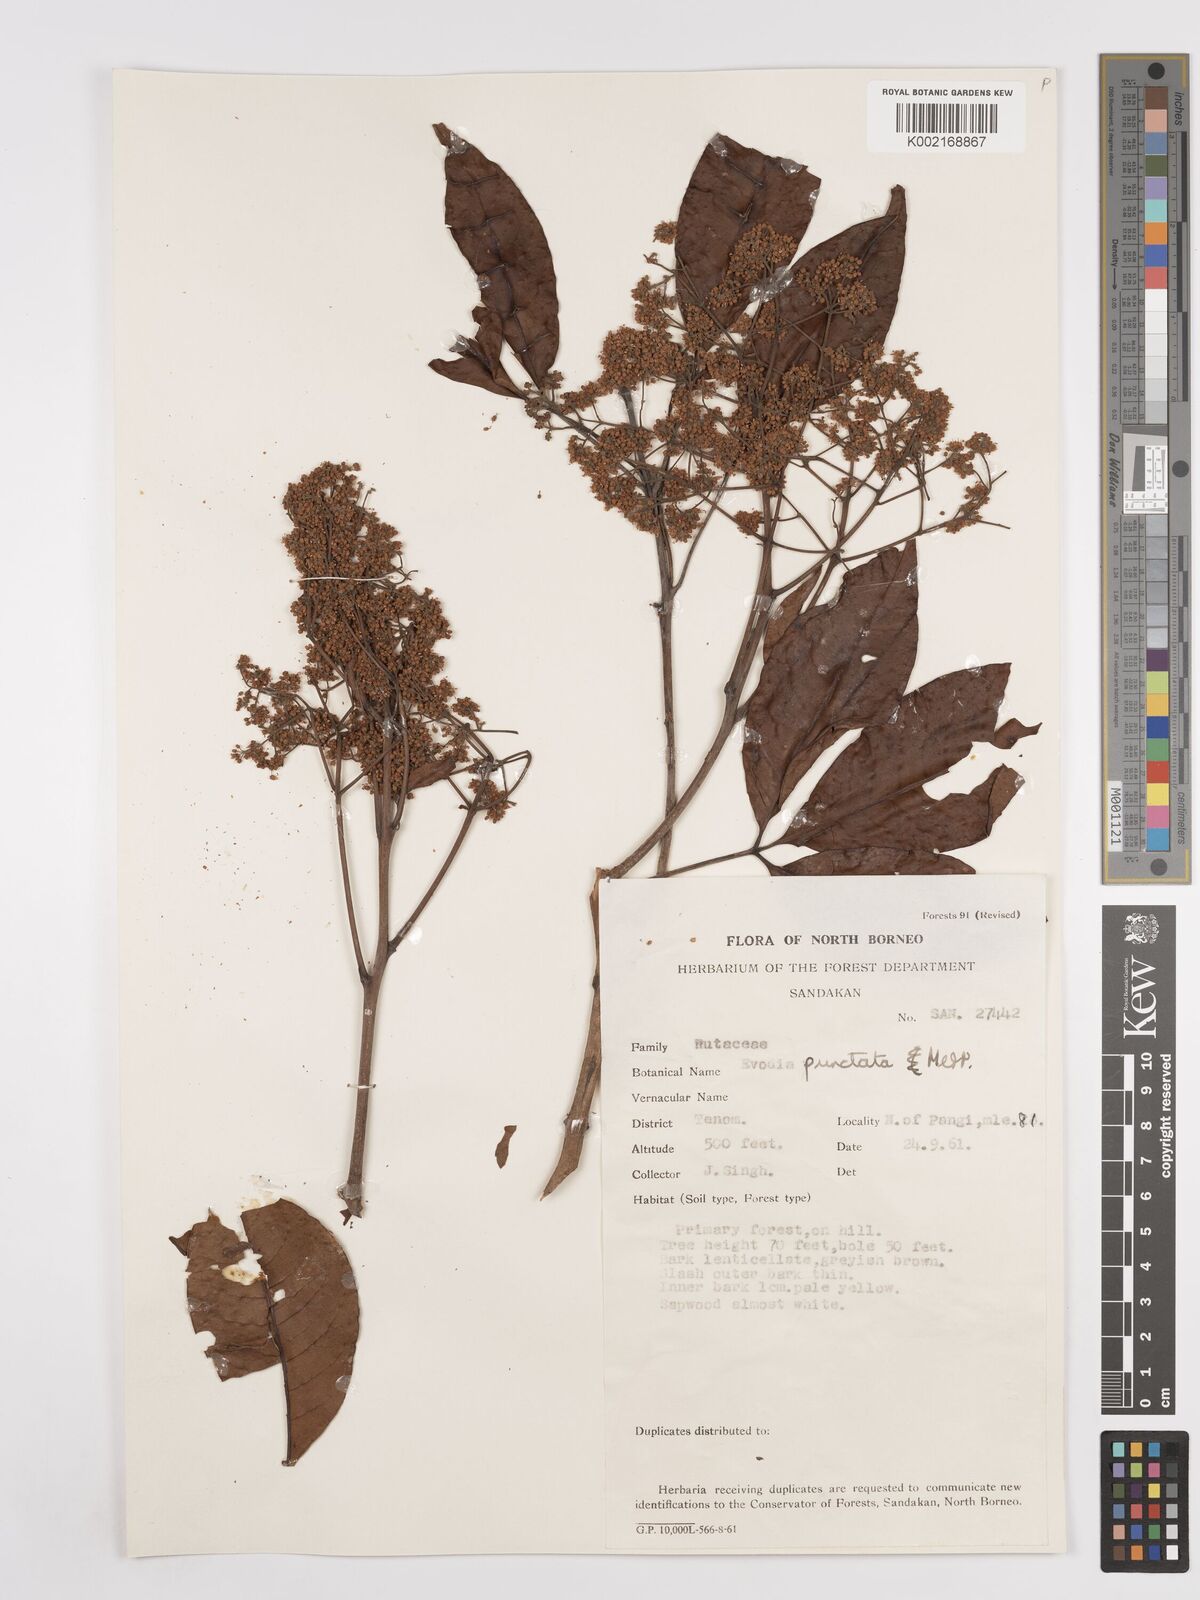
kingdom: Plantae
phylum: Tracheophyta
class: Magnoliopsida
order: Sapindales
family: Rutaceae
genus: Melicope
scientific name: Melicope lunu-ankenda
